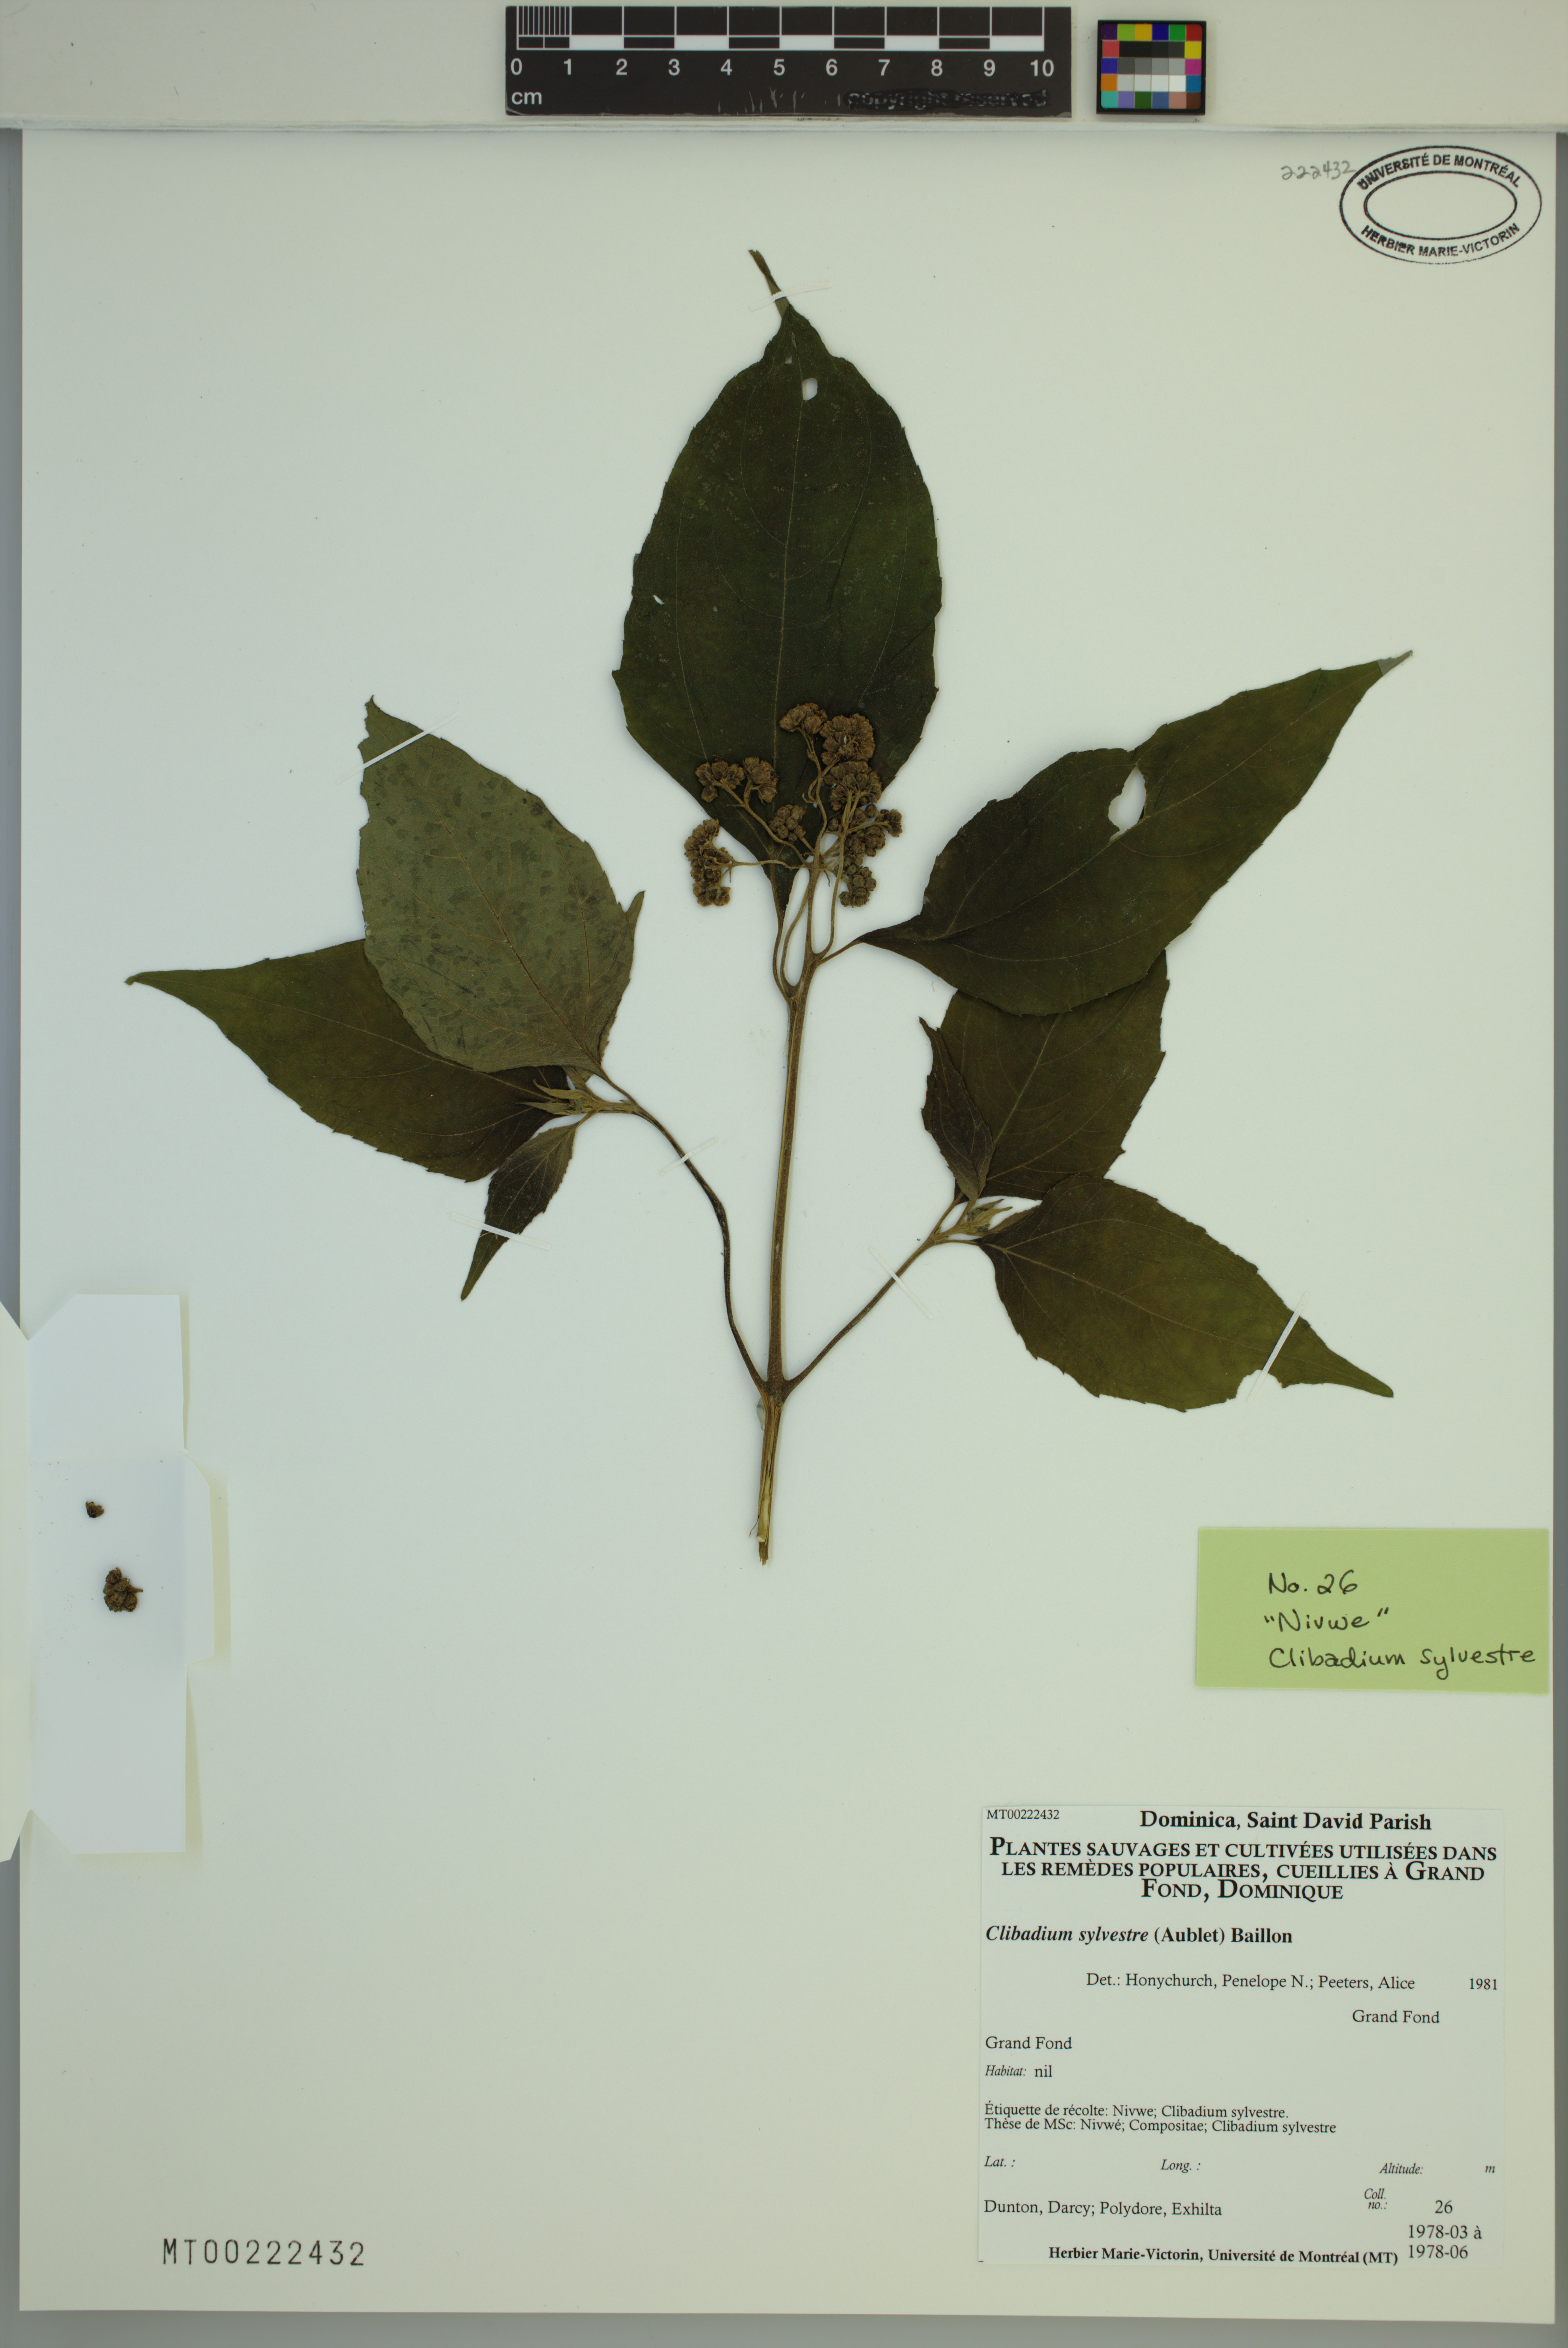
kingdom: Plantae
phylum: Tracheophyta
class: Magnoliopsida
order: Asterales
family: Asteraceae
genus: Clibadium
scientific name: Clibadium sylvestre
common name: Barbasco
